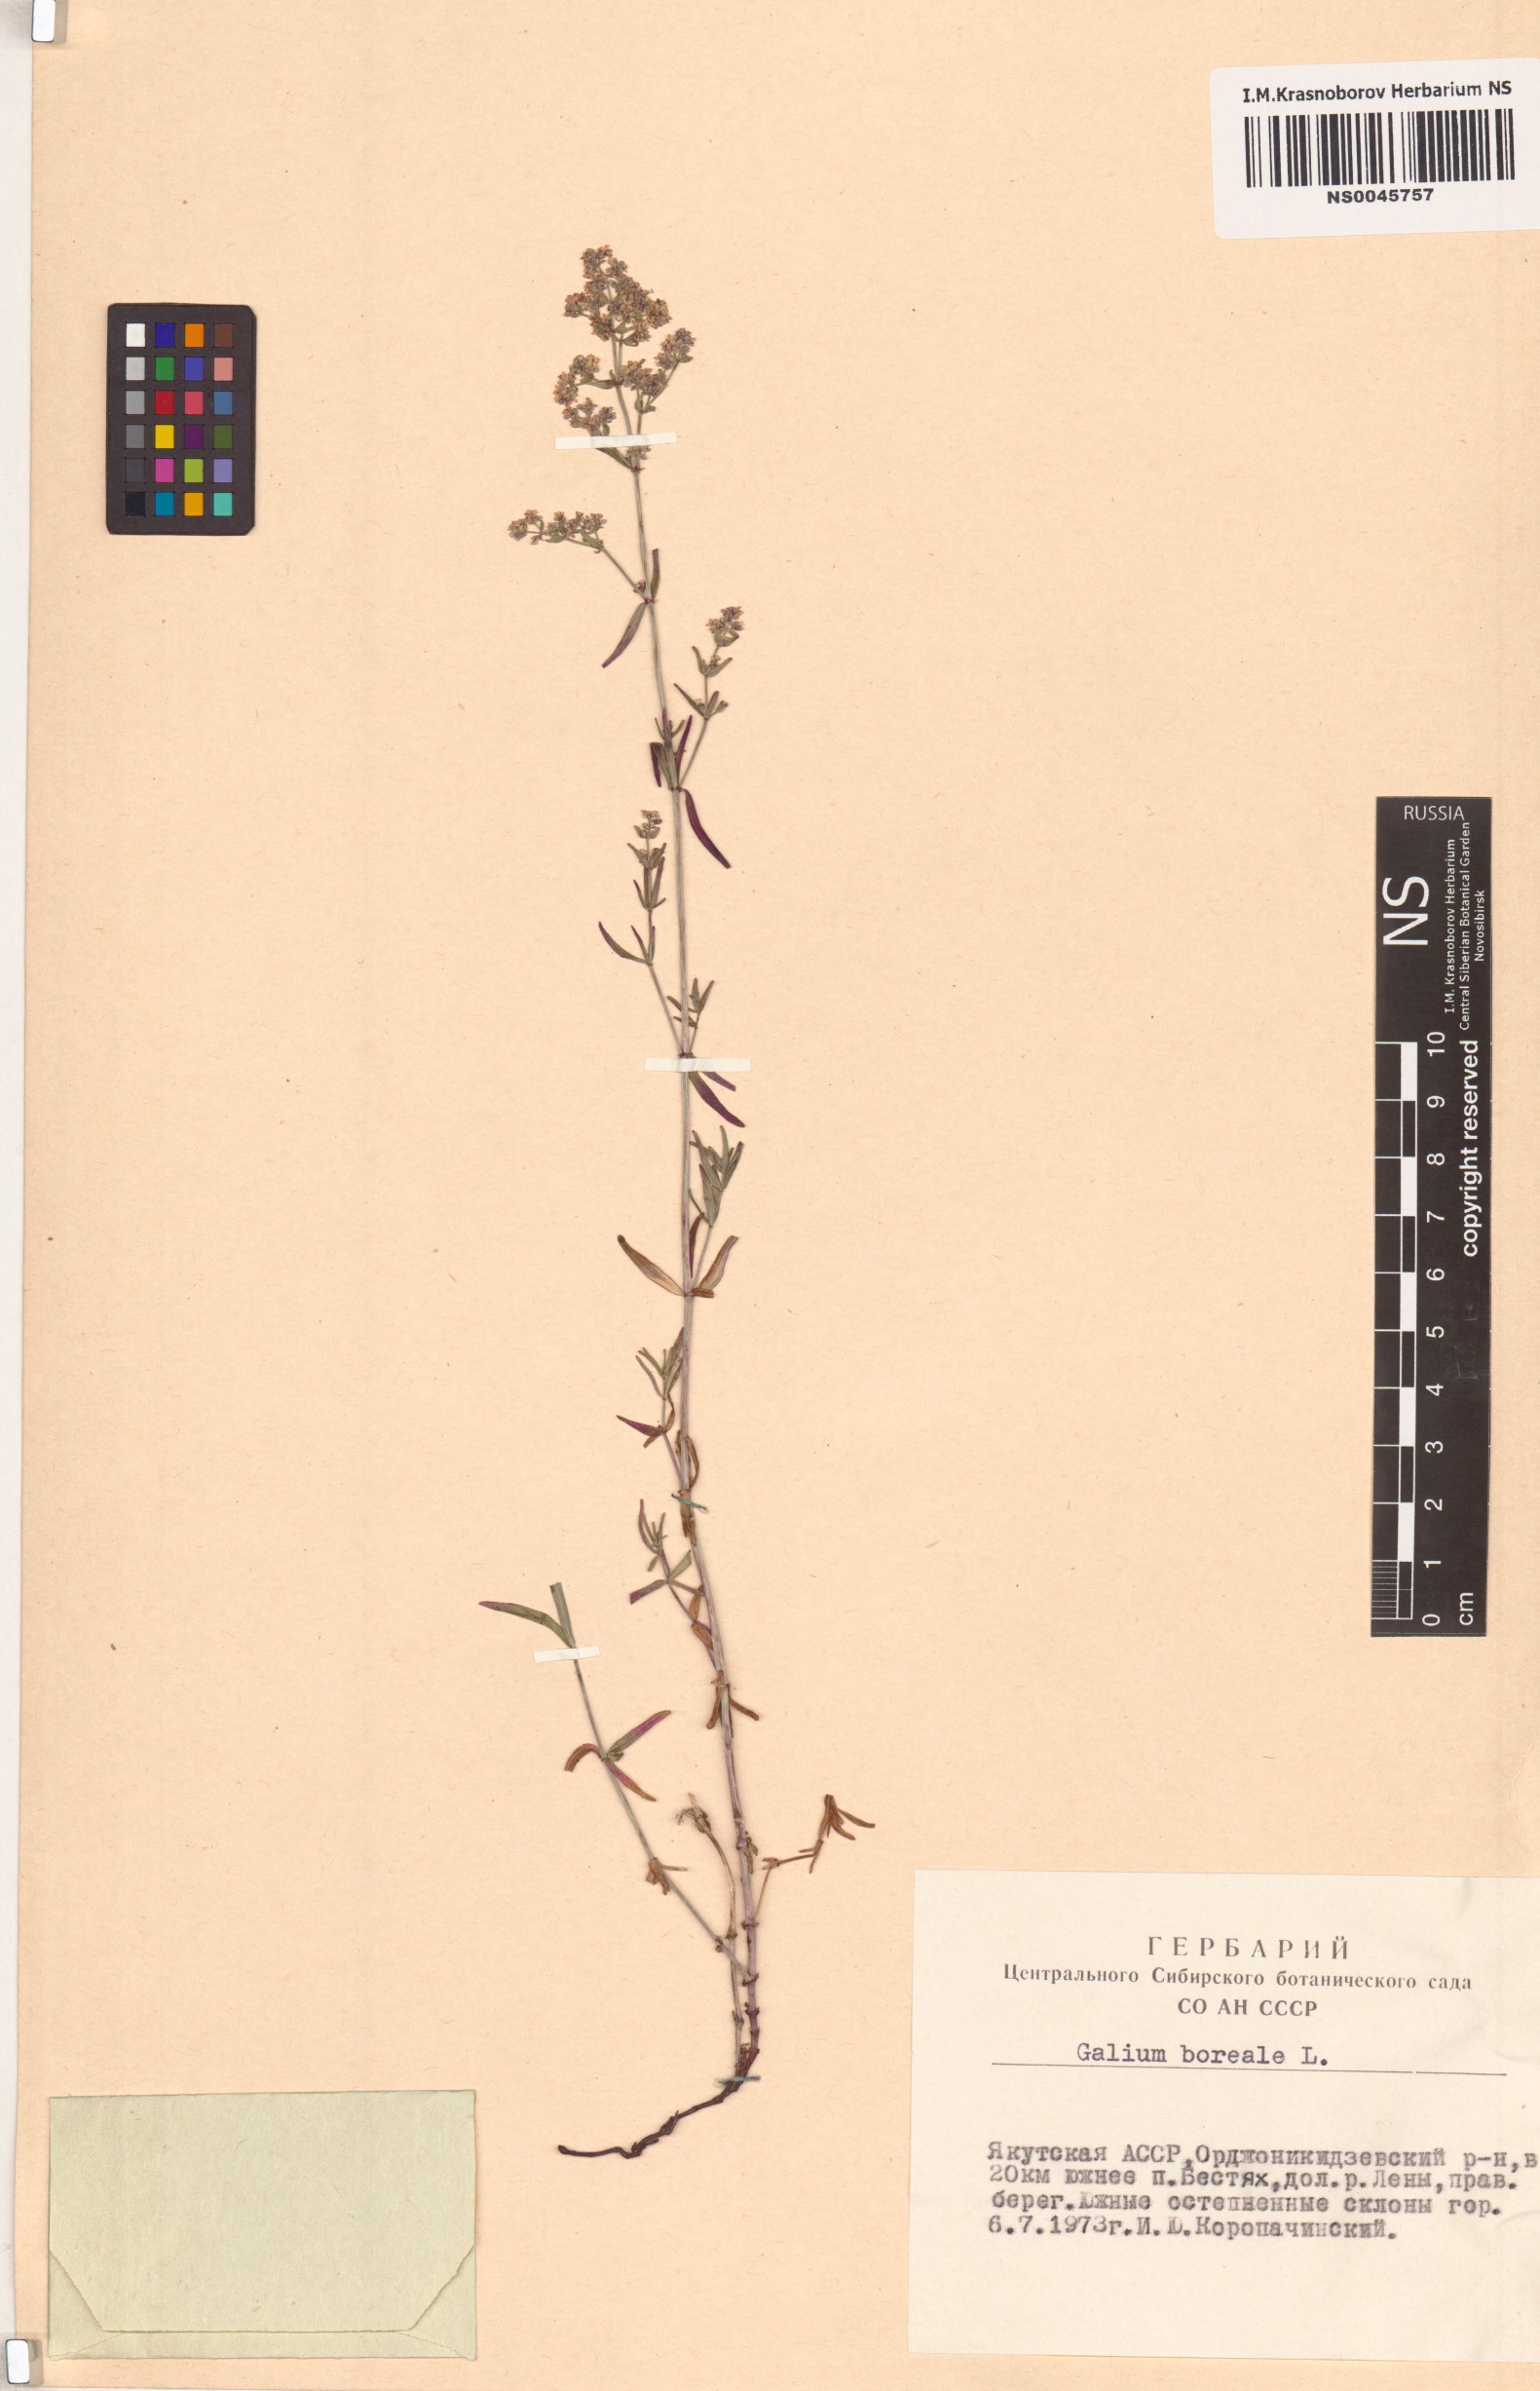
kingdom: Plantae
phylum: Tracheophyta
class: Magnoliopsida
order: Gentianales
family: Rubiaceae
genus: Galium
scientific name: Galium boreale
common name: Northern bedstraw
